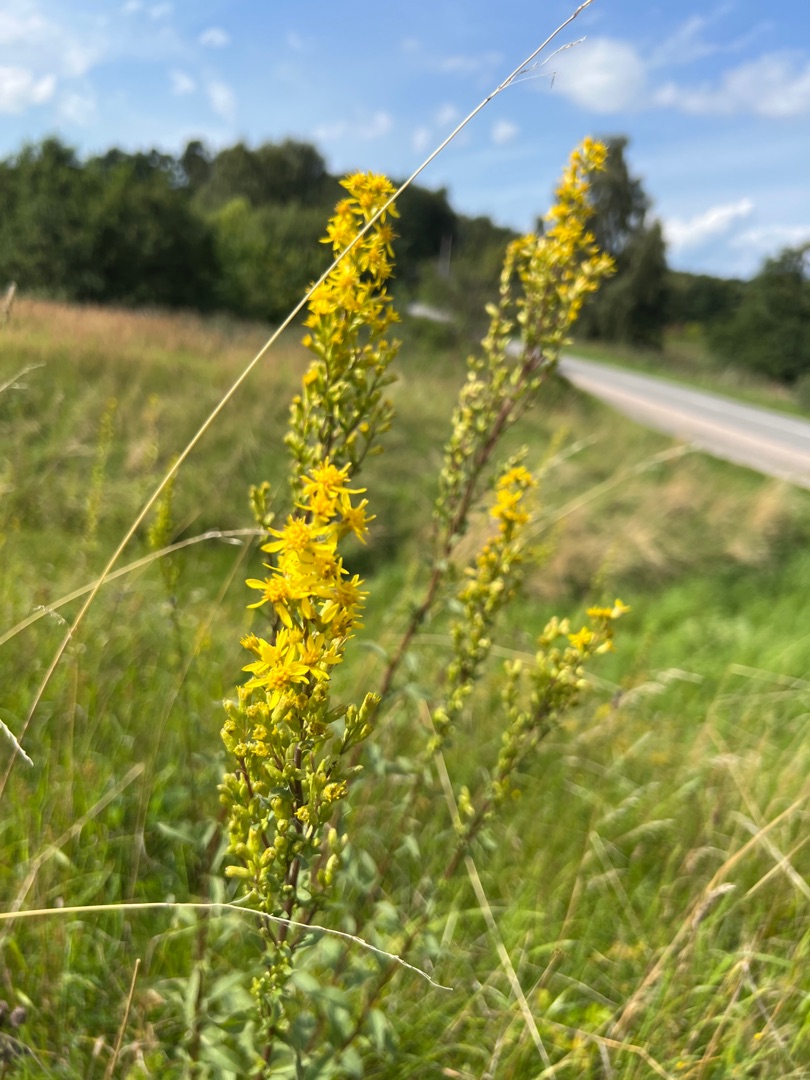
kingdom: Plantae
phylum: Tracheophyta
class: Magnoliopsida
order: Asterales
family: Asteraceae
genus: Solidago
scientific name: Solidago virgaurea
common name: Almindelig gyldenris
